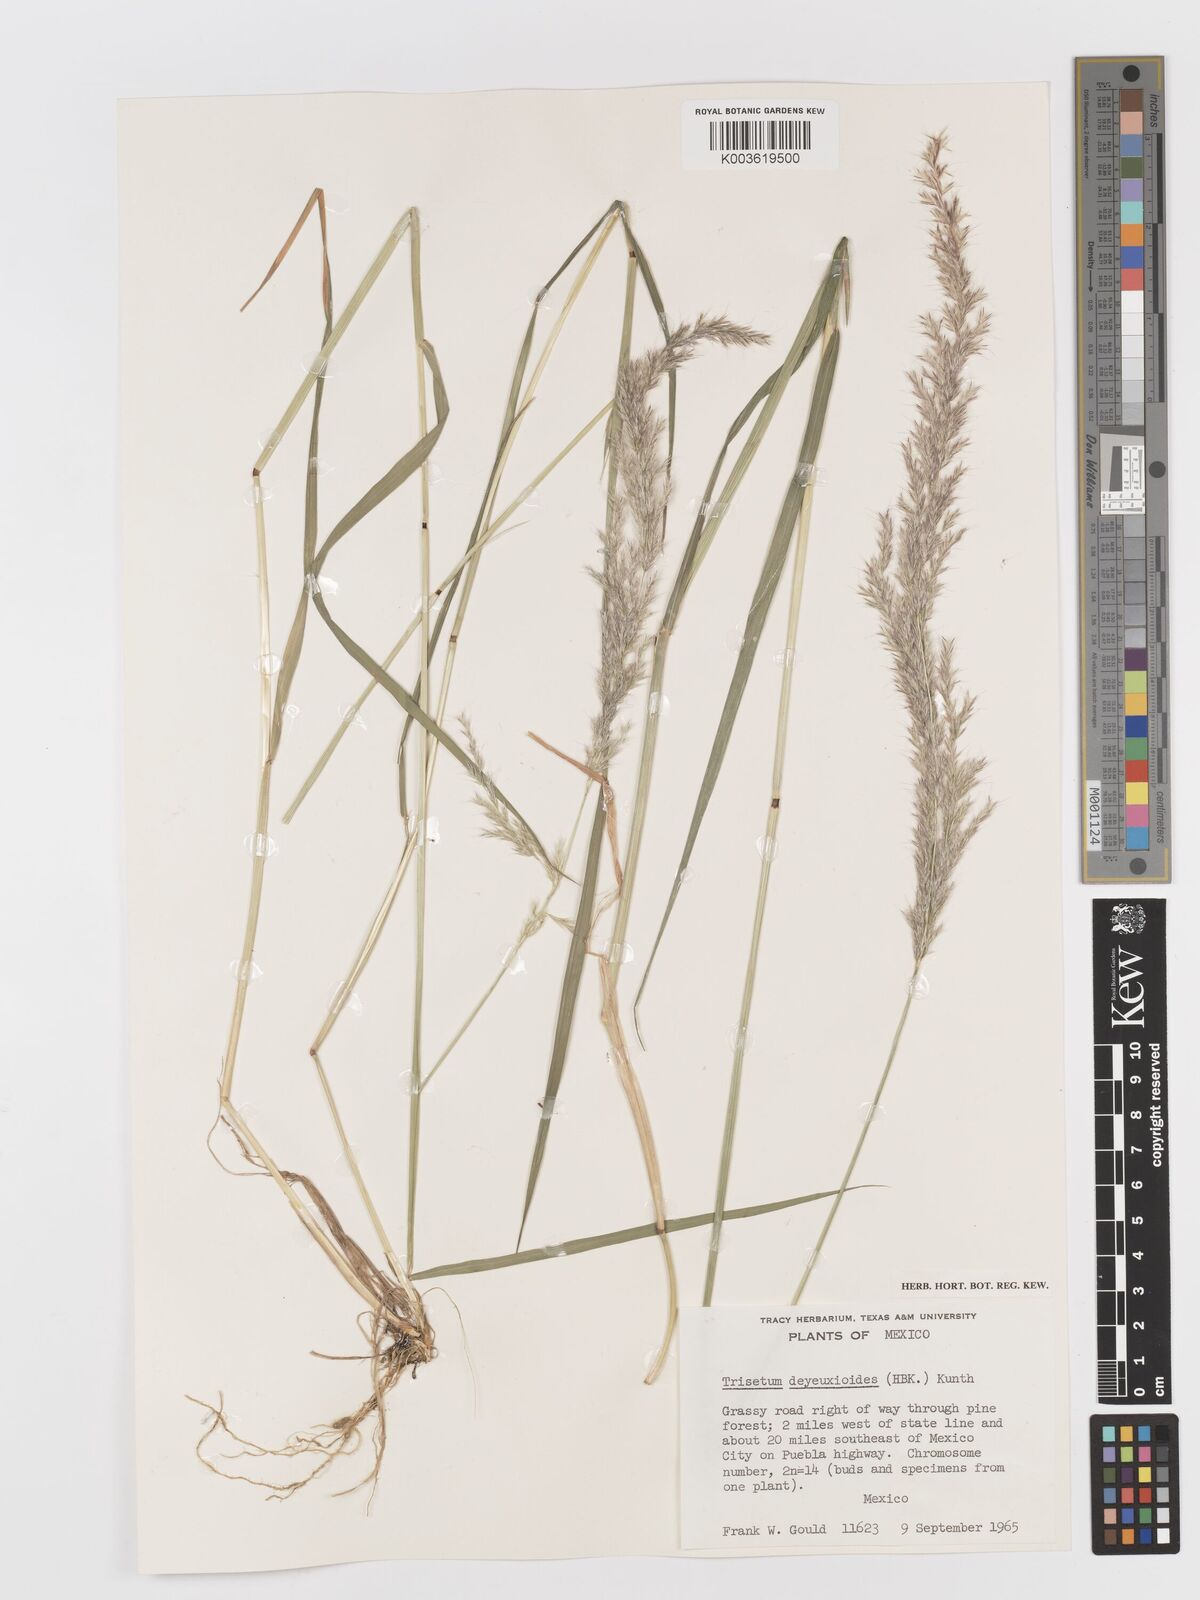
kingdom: Plantae
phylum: Tracheophyta
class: Liliopsida
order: Poales
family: Poaceae
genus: Peyritschia
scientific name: Peyritschia deyeuxioides
